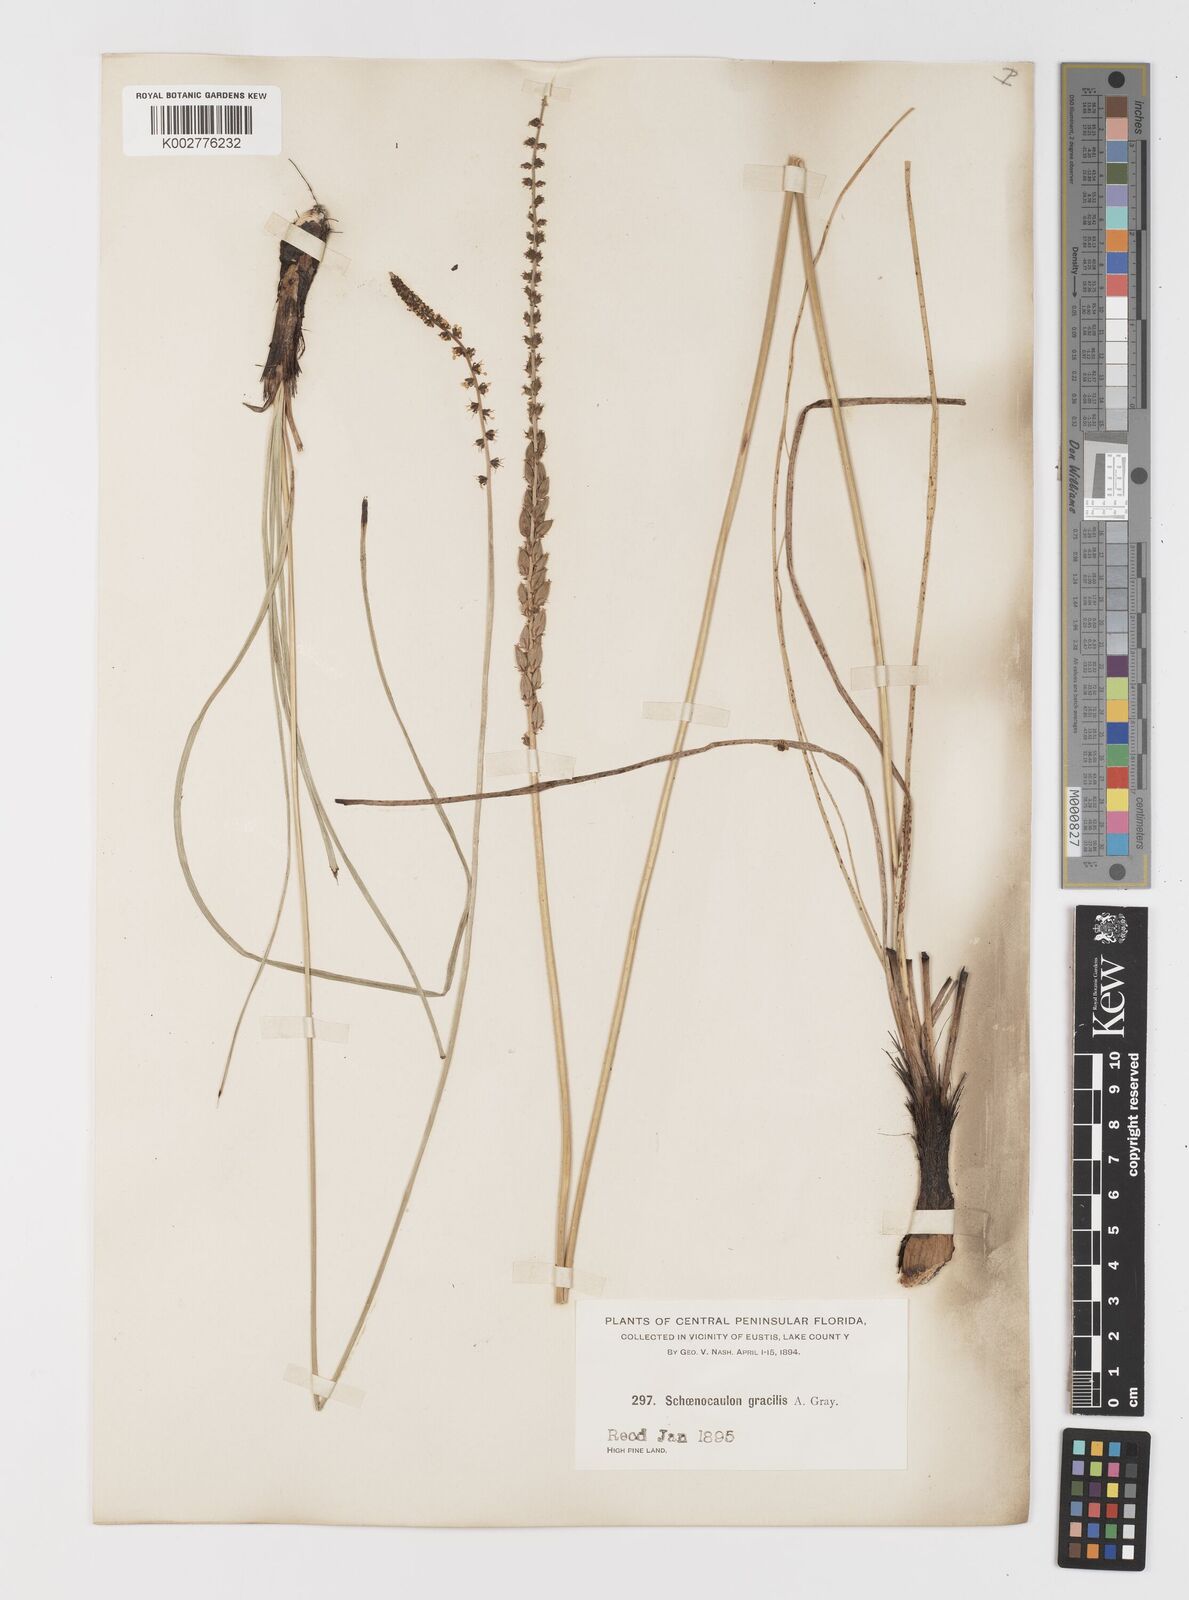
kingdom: Plantae
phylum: Tracheophyta
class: Liliopsida
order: Liliales
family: Melanthiaceae
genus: Schoenocaulon
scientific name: Schoenocaulon dubium
